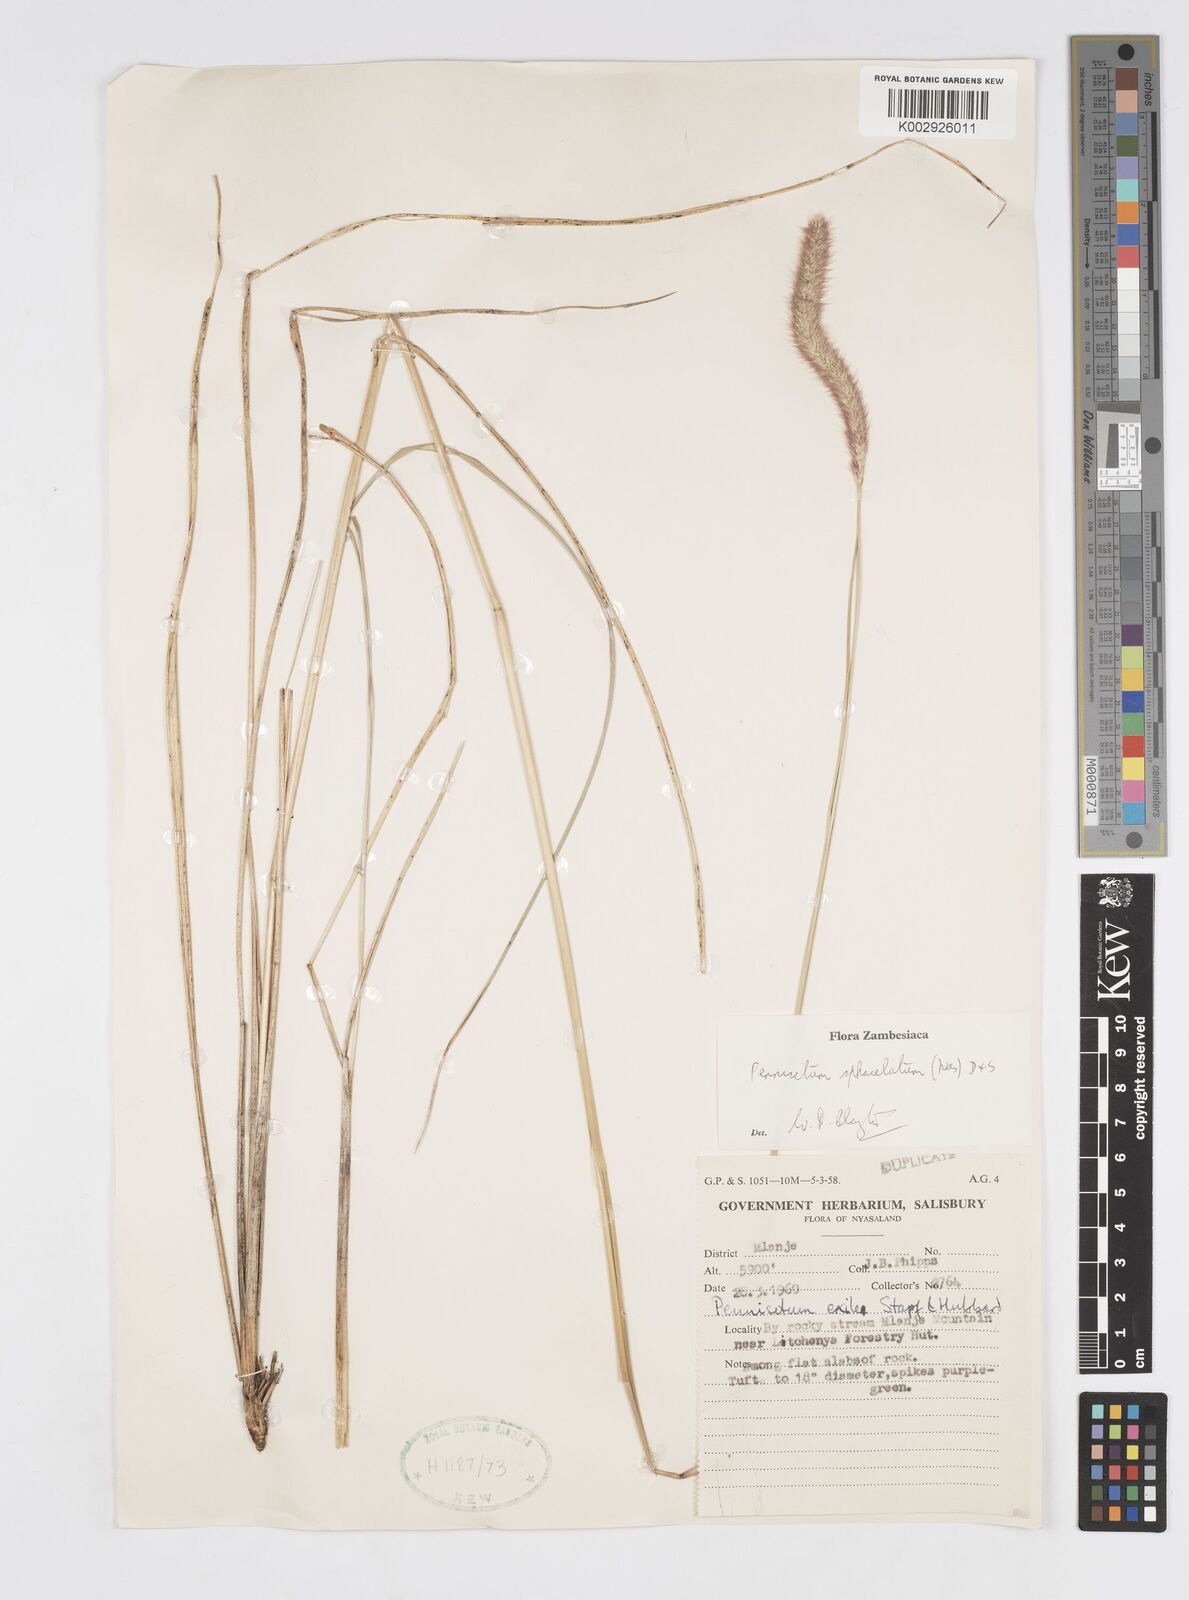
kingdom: Plantae
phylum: Tracheophyta
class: Liliopsida
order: Poales
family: Poaceae
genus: Cenchrus
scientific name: Cenchrus sphacelatus
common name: Bulgras
